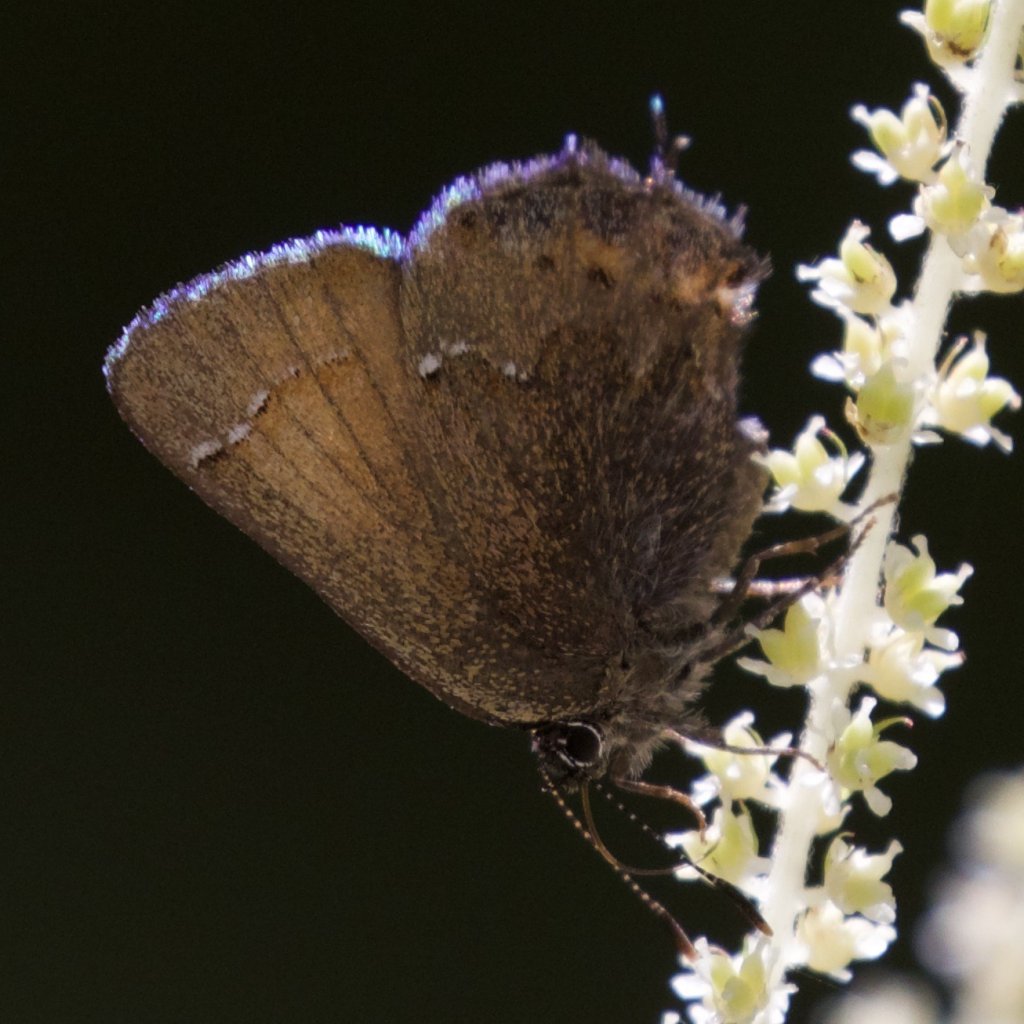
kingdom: Animalia
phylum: Arthropoda
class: Insecta
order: Lepidoptera
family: Lycaenidae
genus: Mitoura
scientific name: Mitoura gryneus
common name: Juniper Hairstreak
